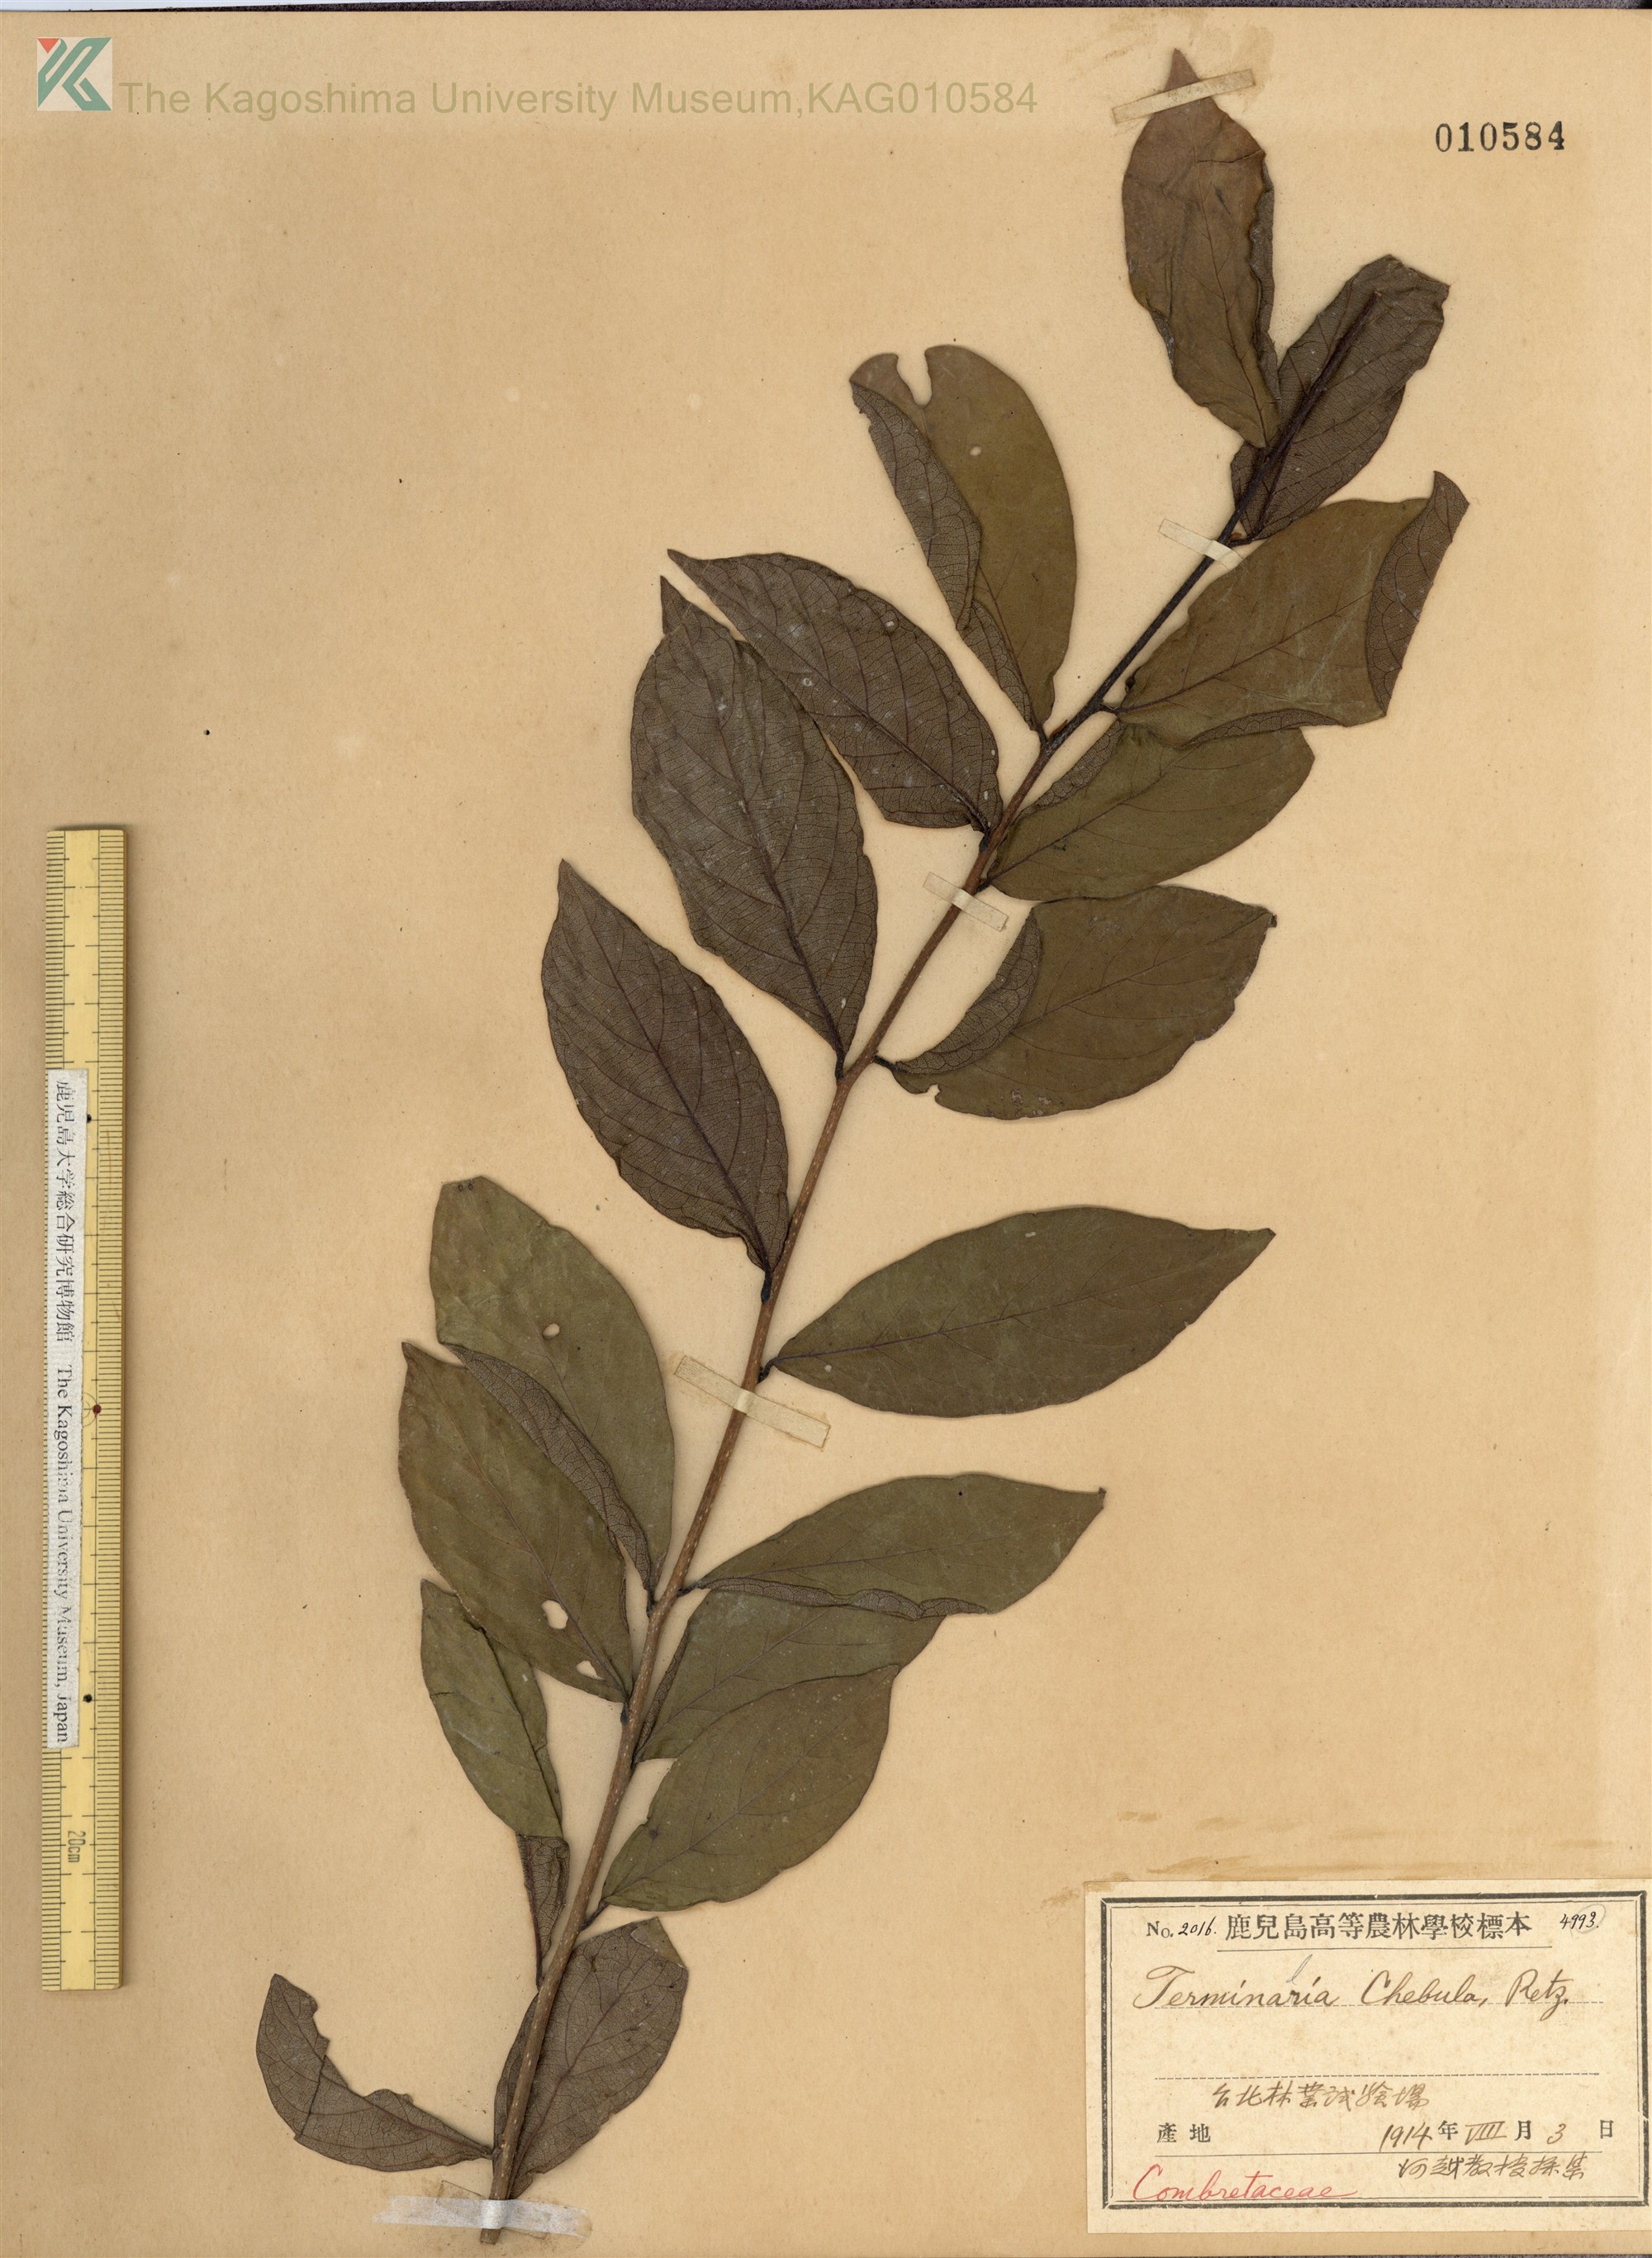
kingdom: Plantae
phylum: Tracheophyta
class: Magnoliopsida
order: Myrtales
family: Combretaceae
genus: Terminalia
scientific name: Terminalia chebula
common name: Myrobalan
